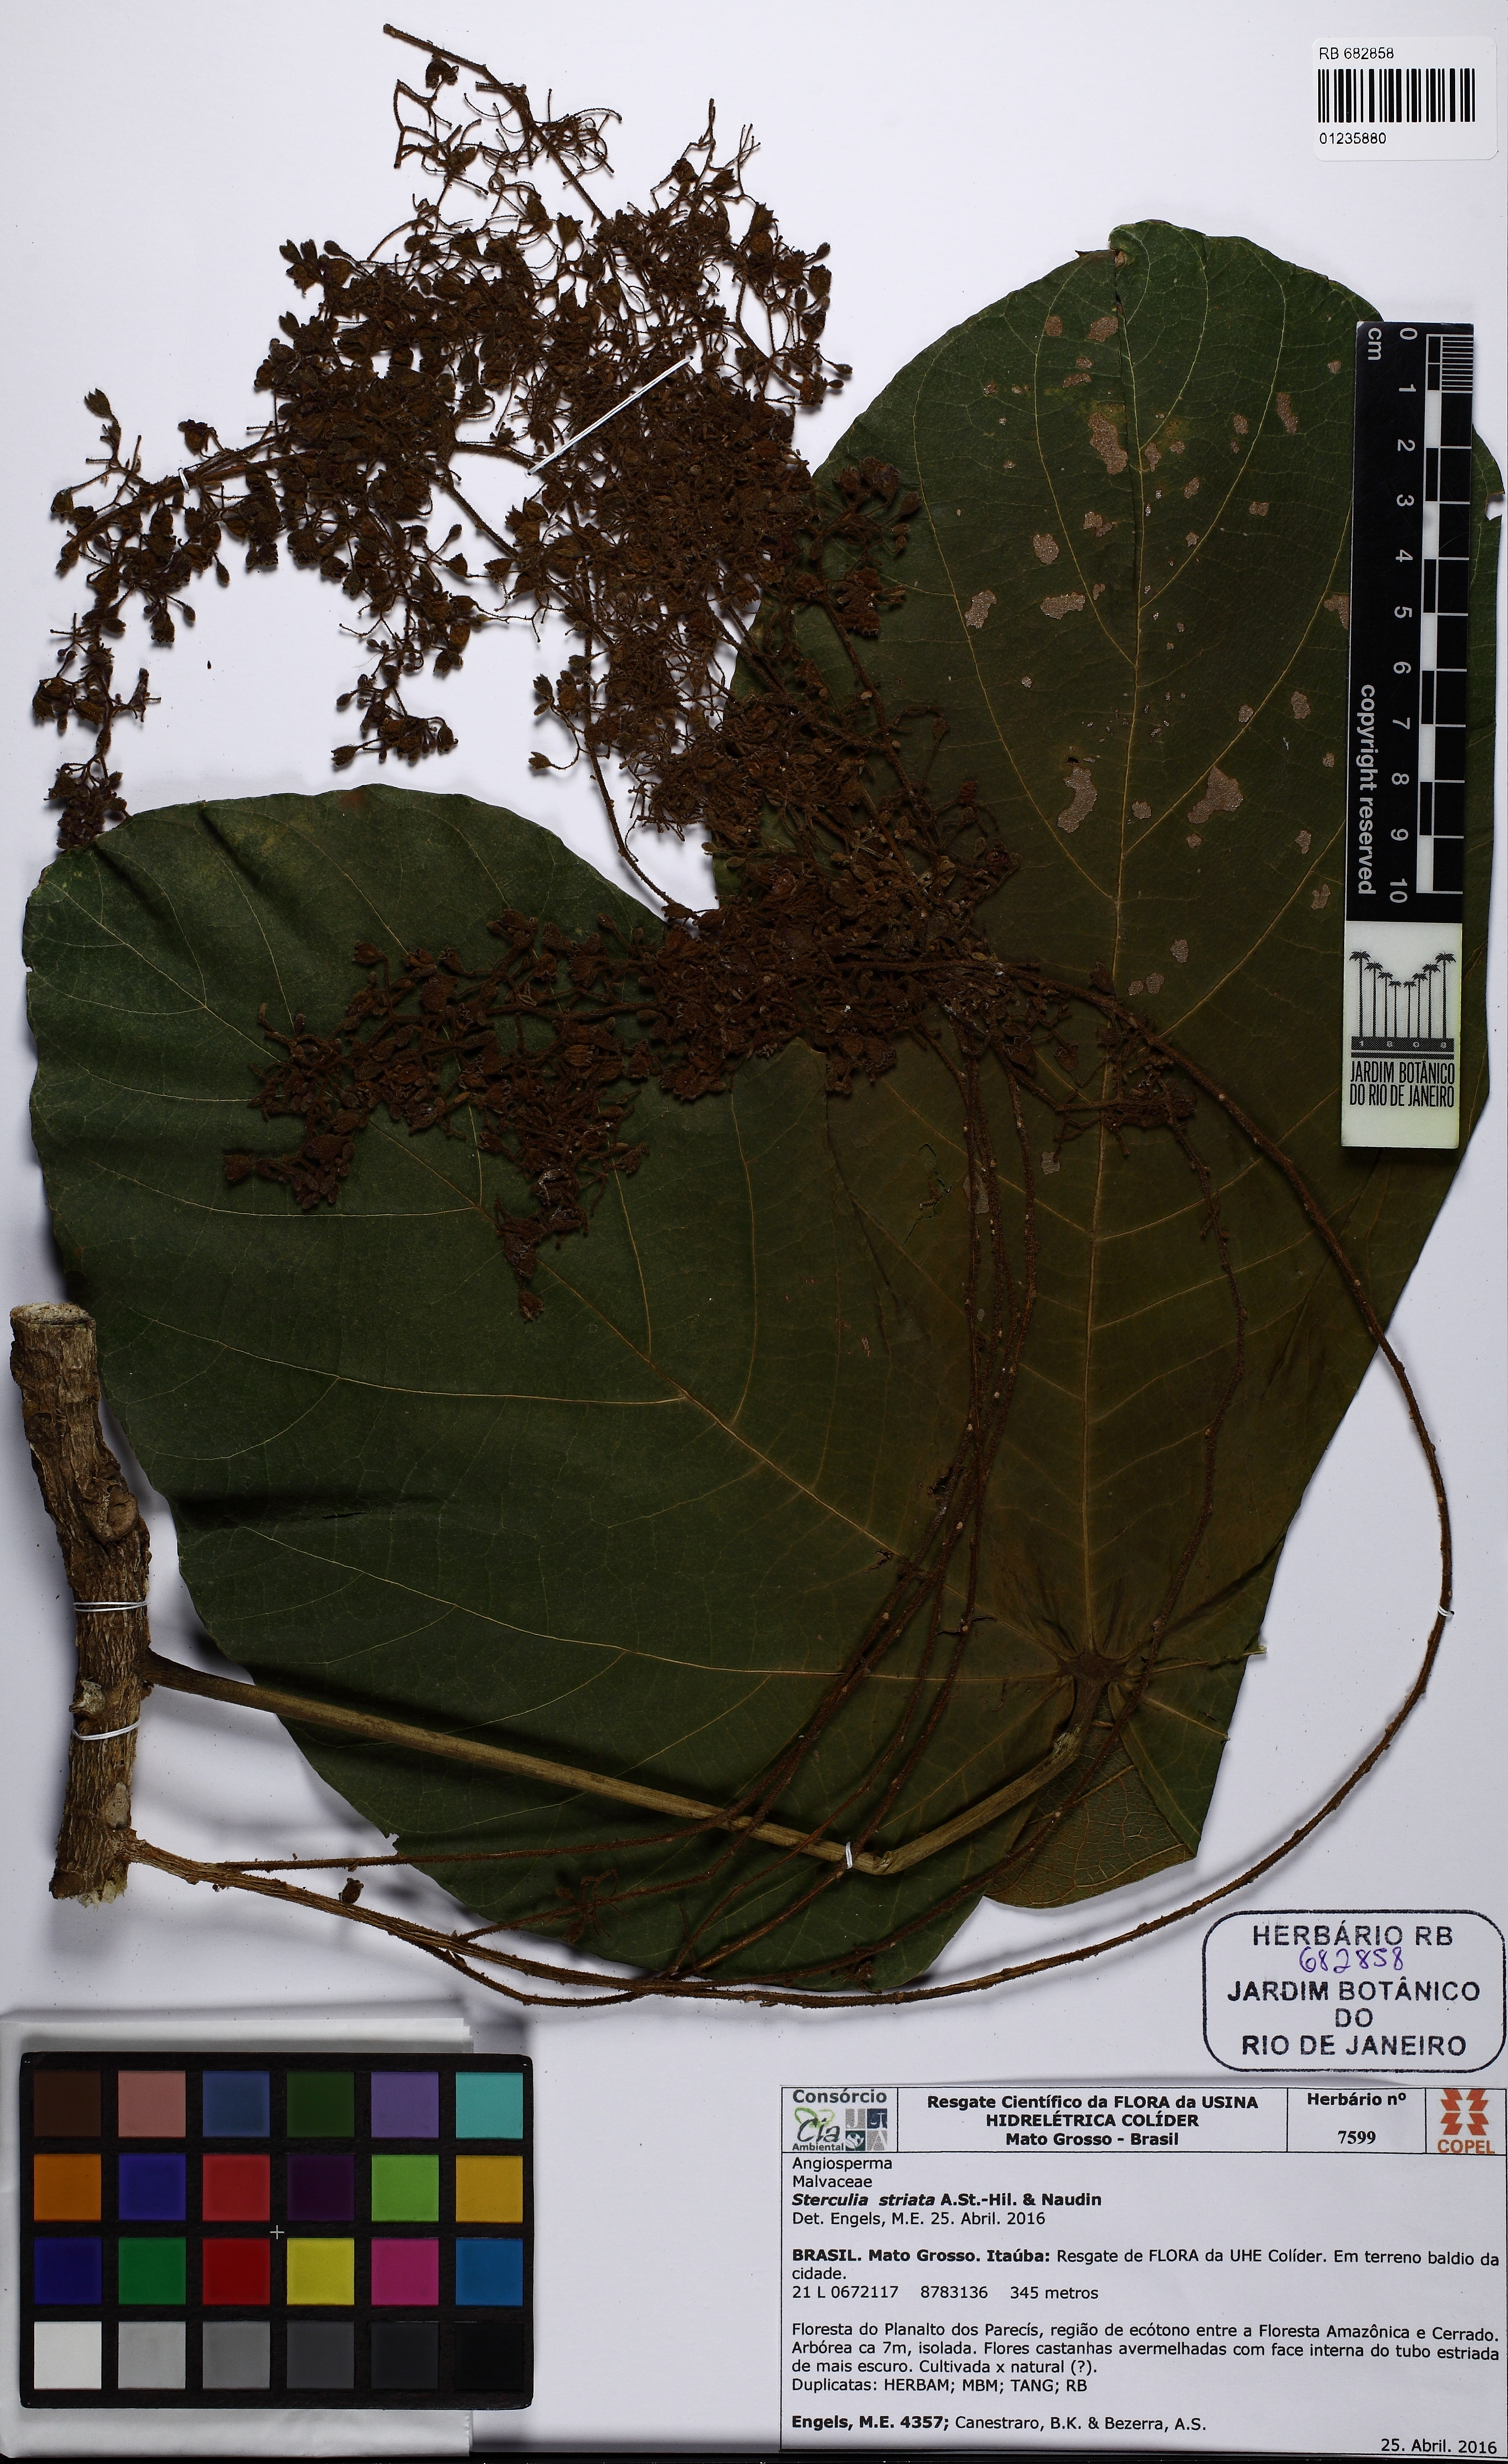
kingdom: Plantae
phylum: Tracheophyta
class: Magnoliopsida
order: Malvales
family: Malvaceae
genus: Sterculia
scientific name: Sterculia striata
